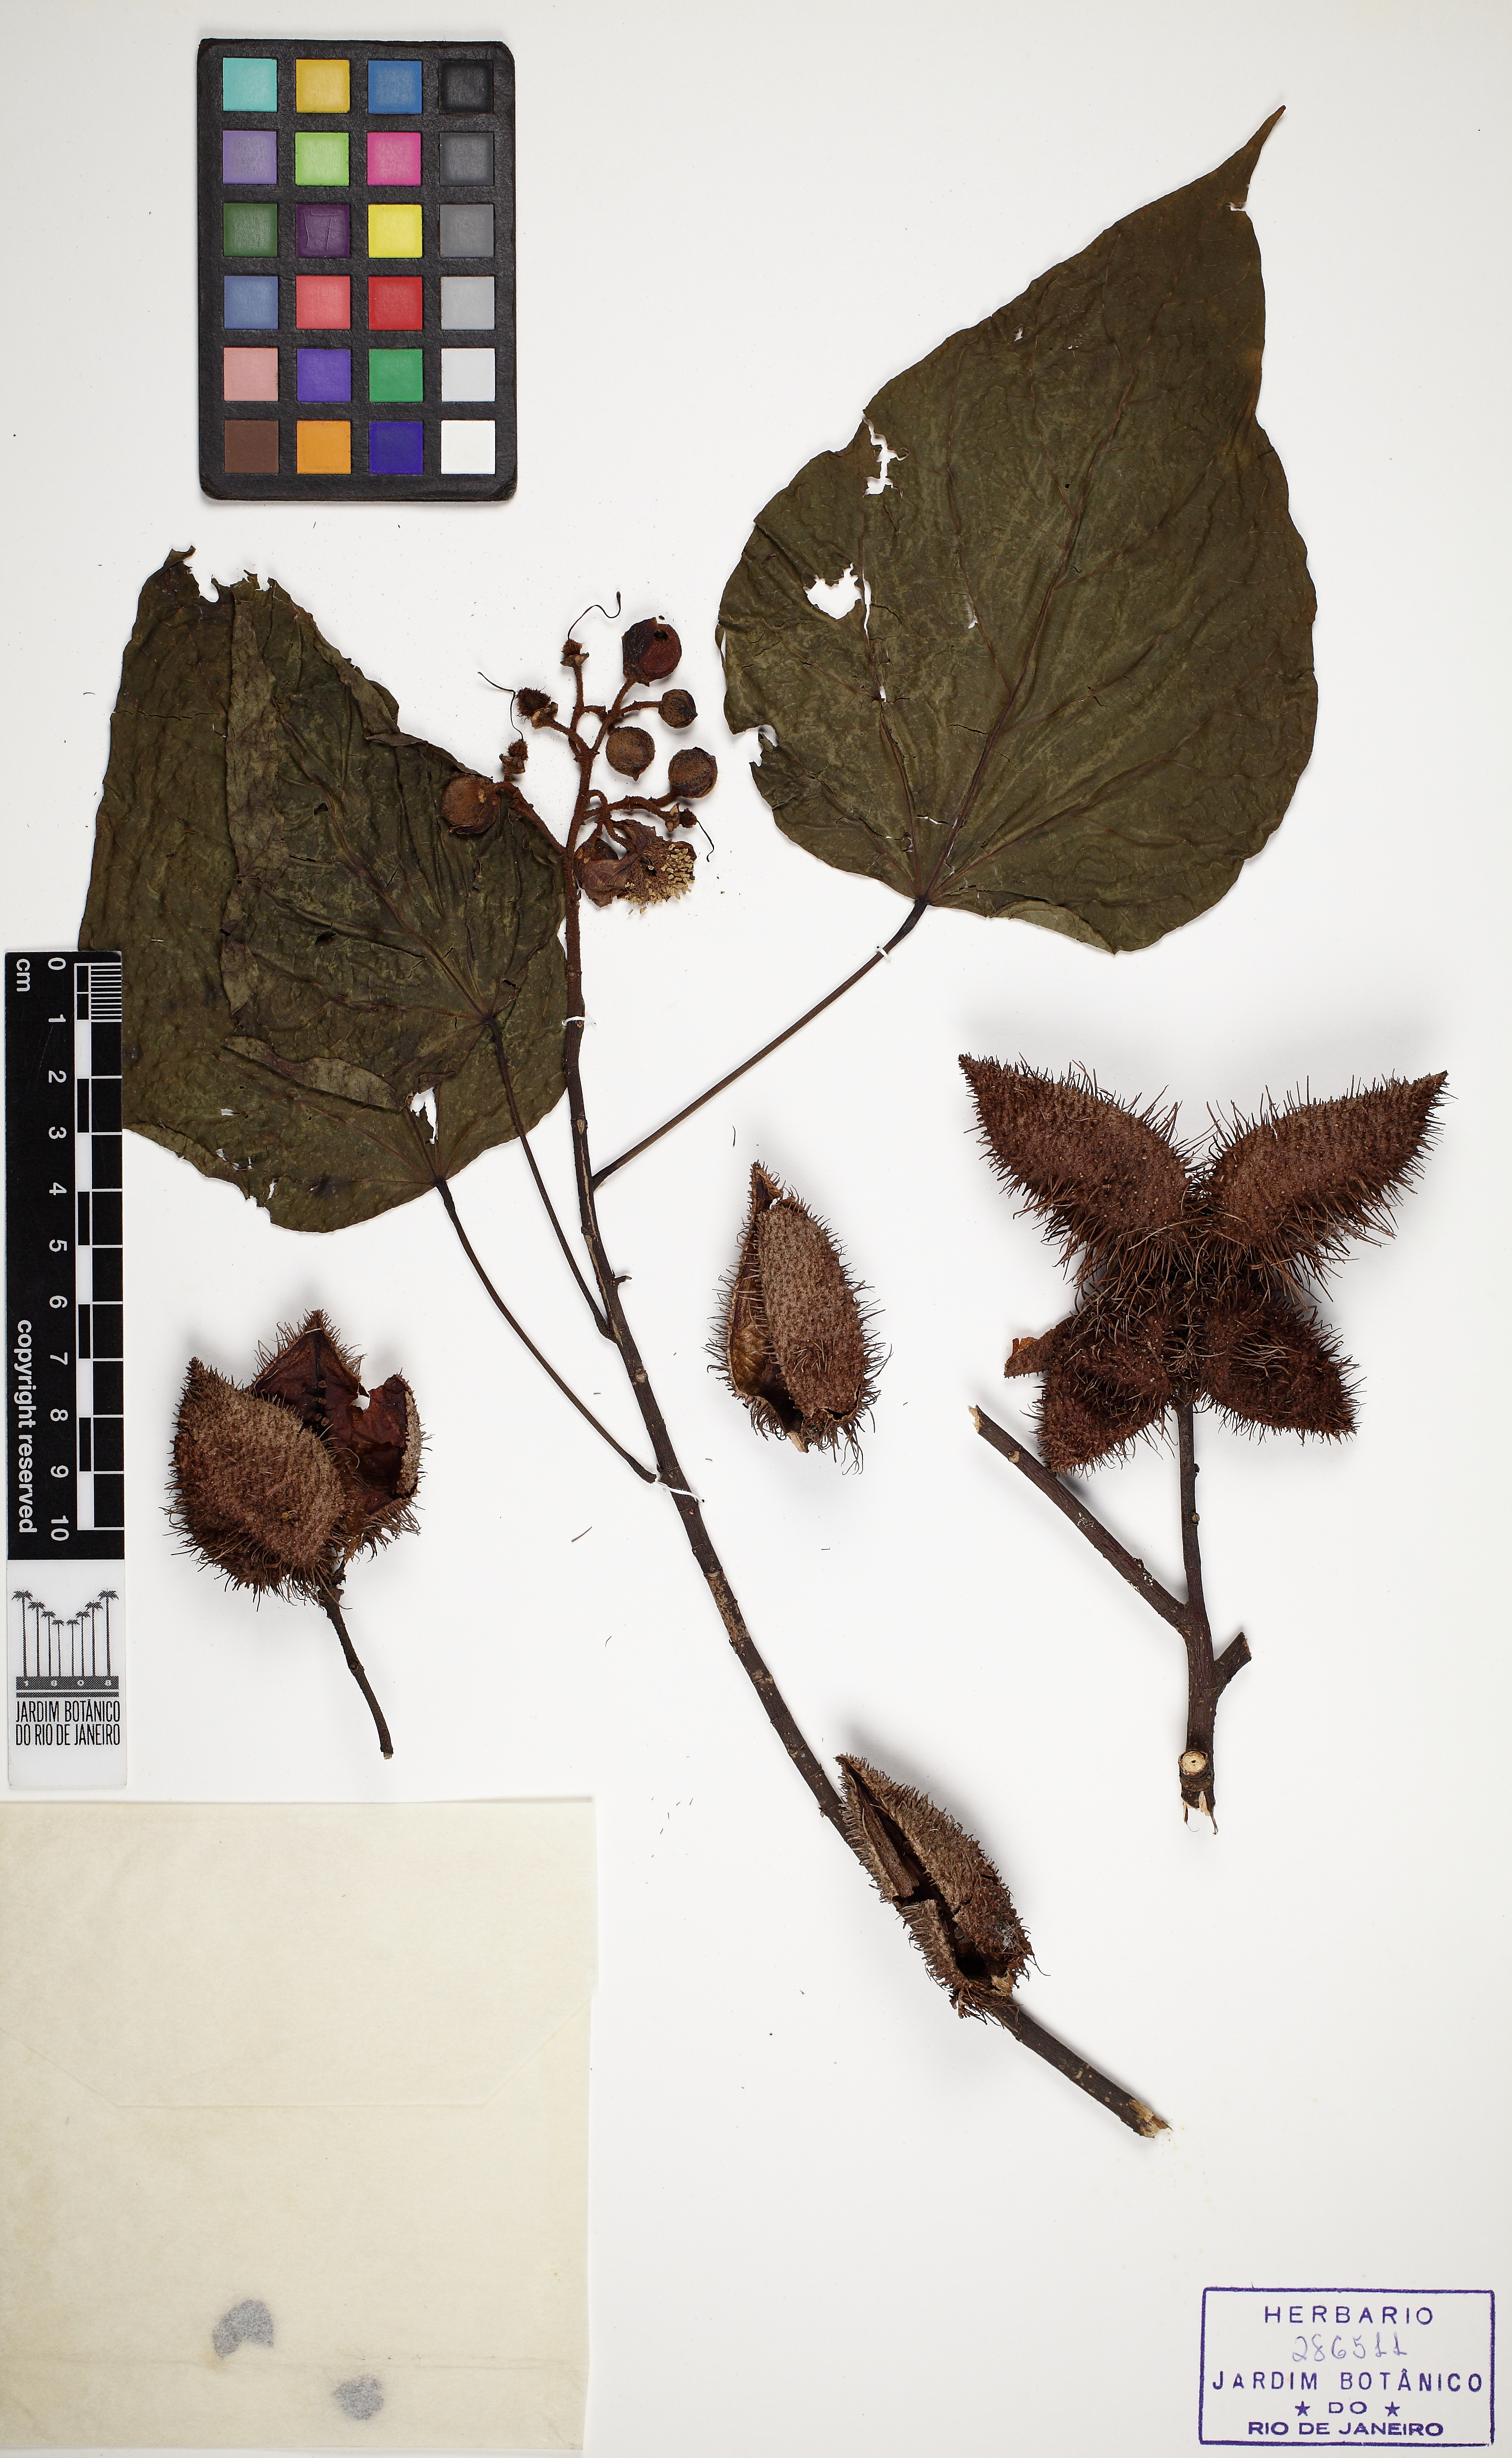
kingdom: Plantae
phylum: Tracheophyta
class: Magnoliopsida
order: Malvales
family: Bixaceae
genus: Bixa
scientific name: Bixa orellana
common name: Lipsticktree
